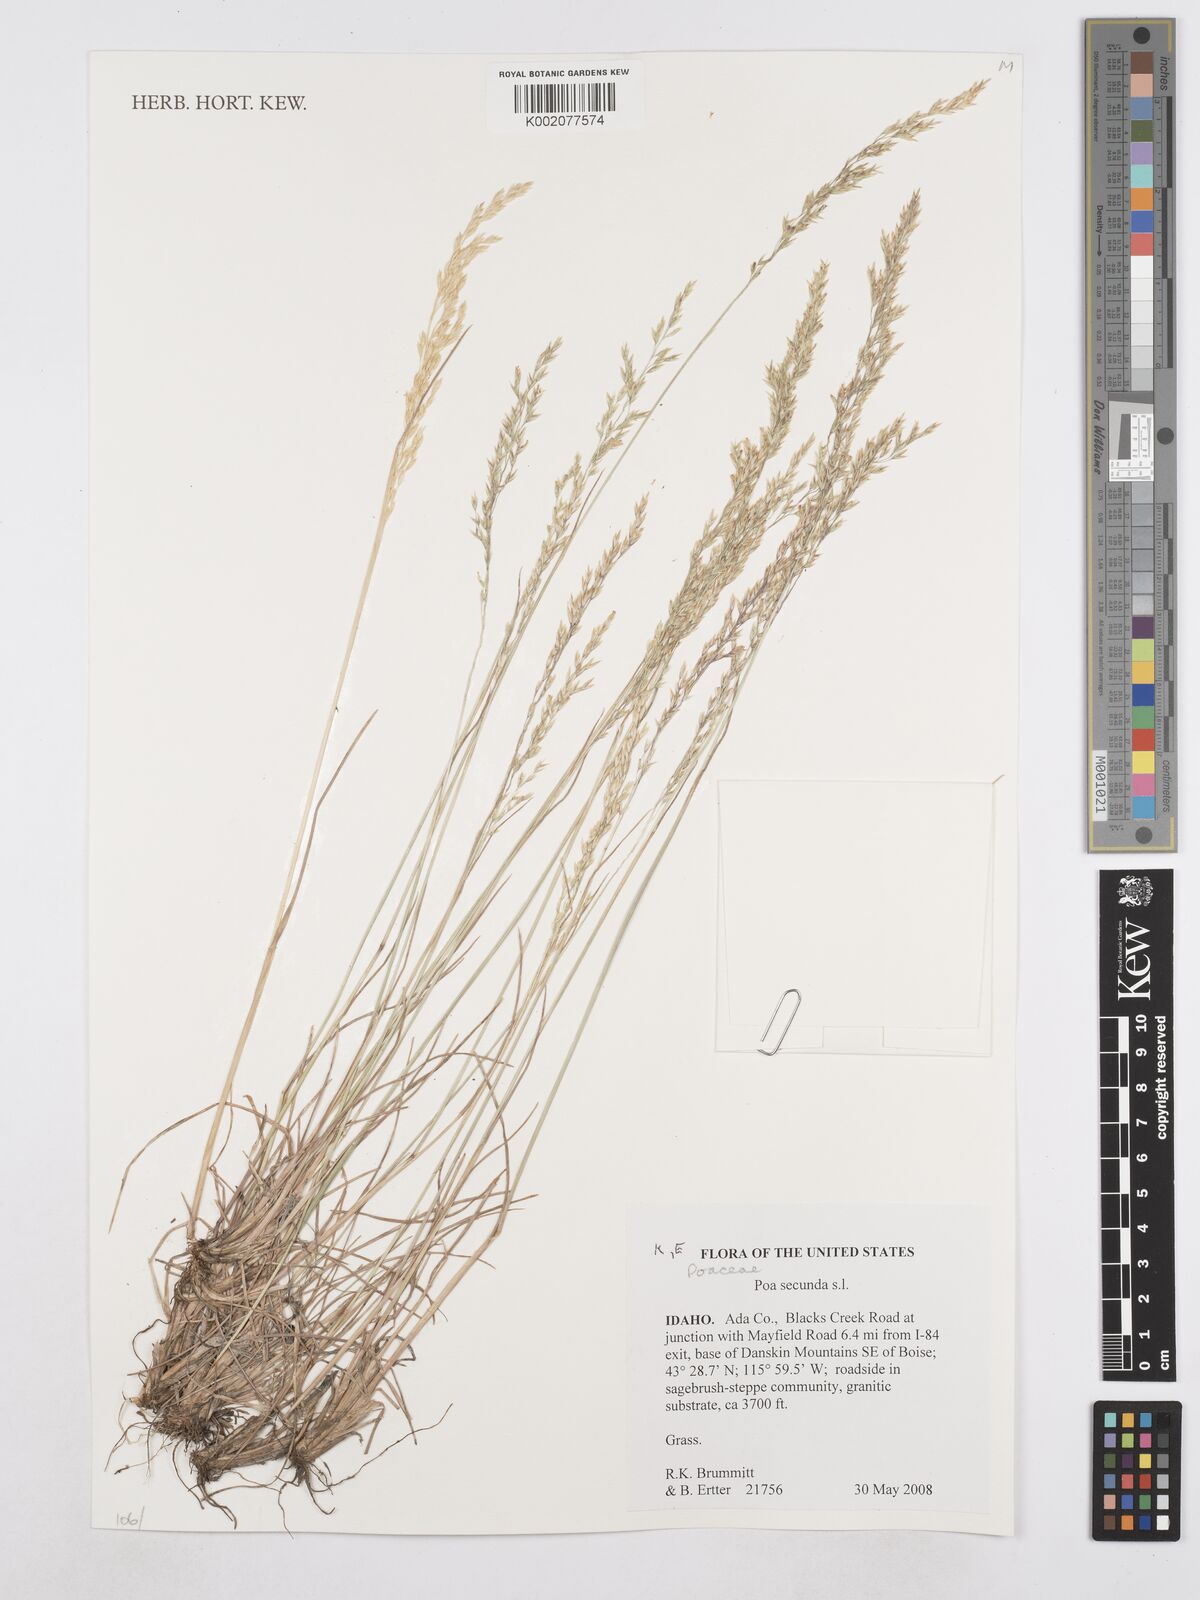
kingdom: Plantae
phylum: Tracheophyta
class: Liliopsida
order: Poales
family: Poaceae
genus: Poa
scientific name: Poa secunda
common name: Sandberg bluegrass
